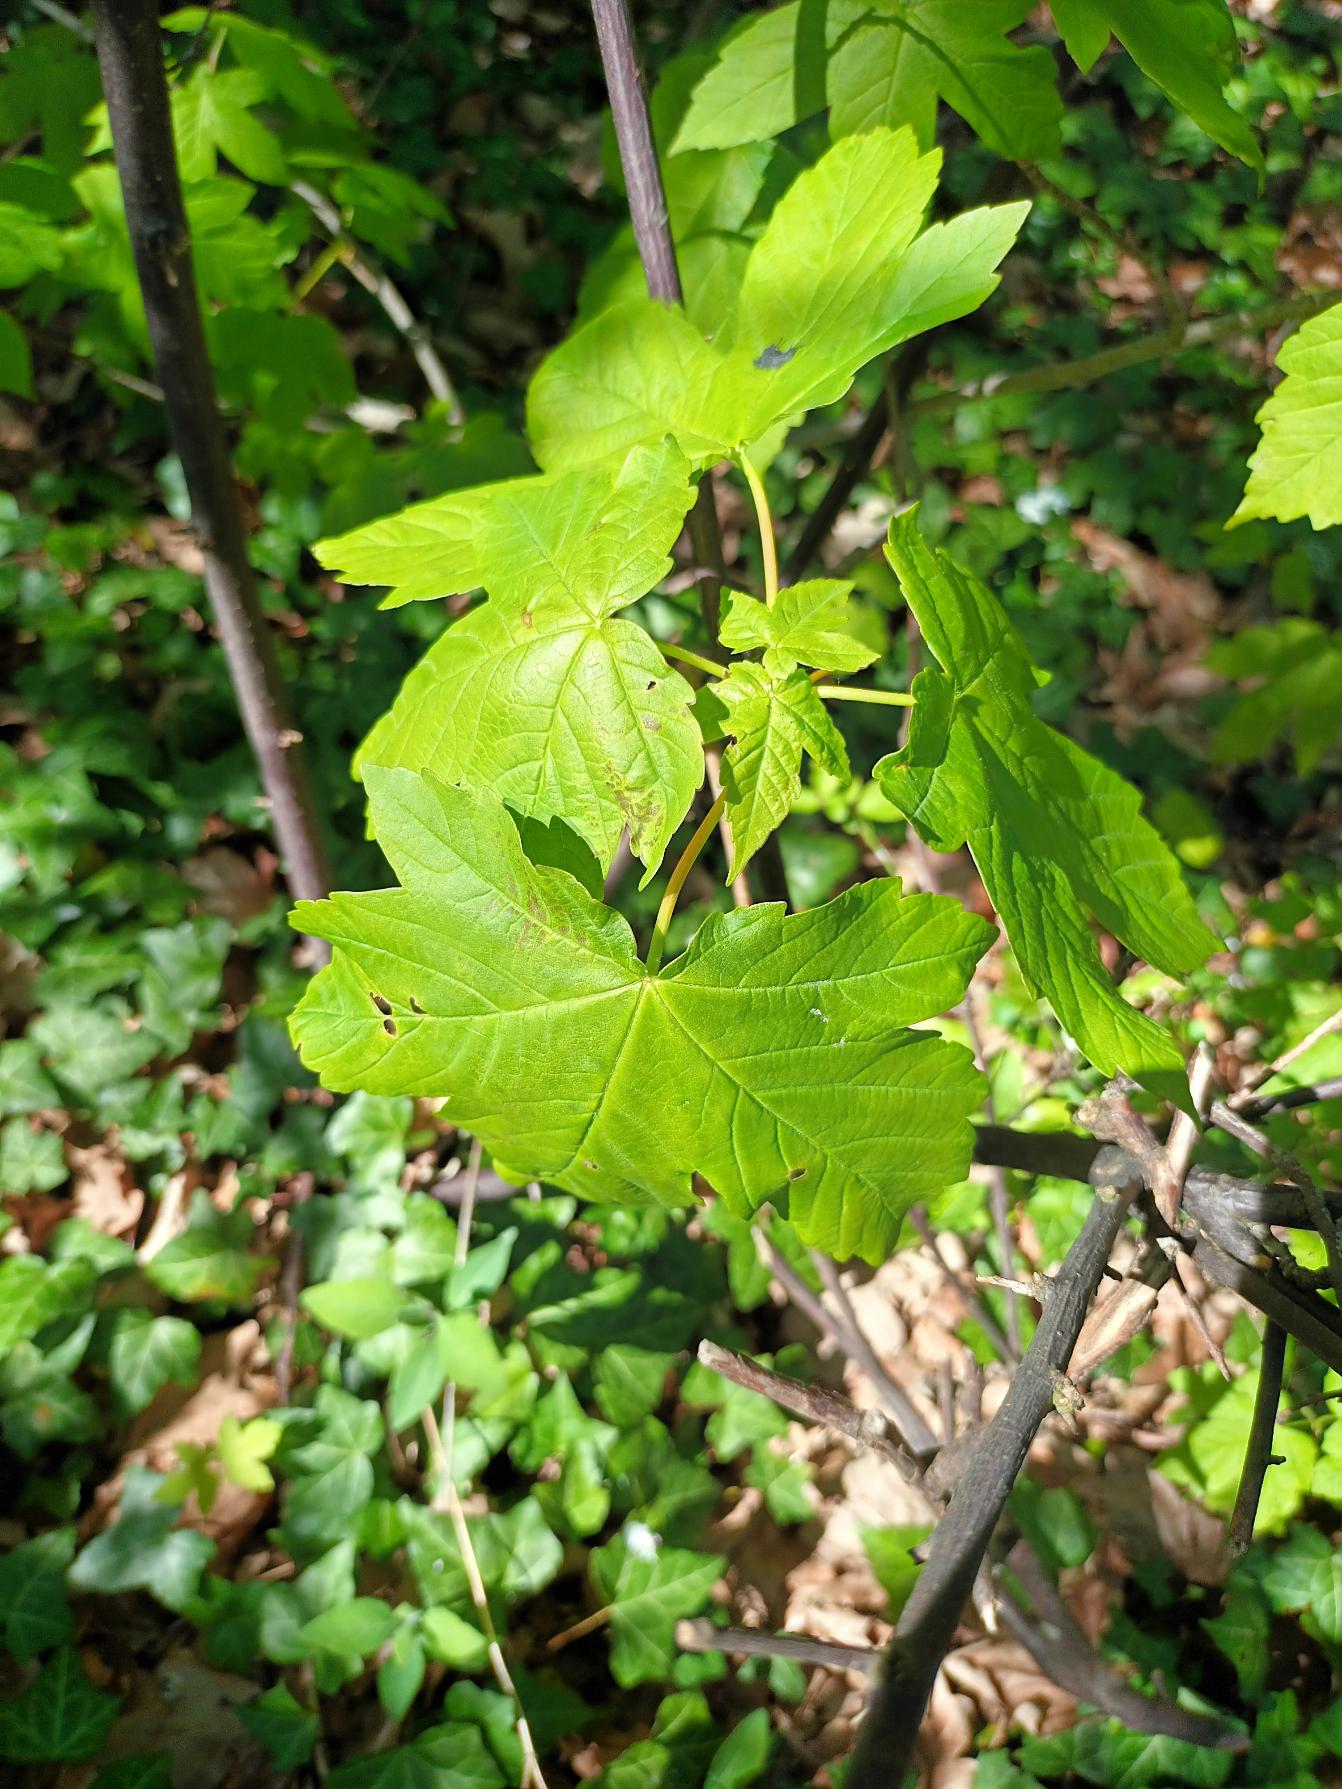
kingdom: Plantae
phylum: Tracheophyta
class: Magnoliopsida
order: Sapindales
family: Sapindaceae
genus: Acer
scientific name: Acer pseudoplatanus
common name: Ahorn
